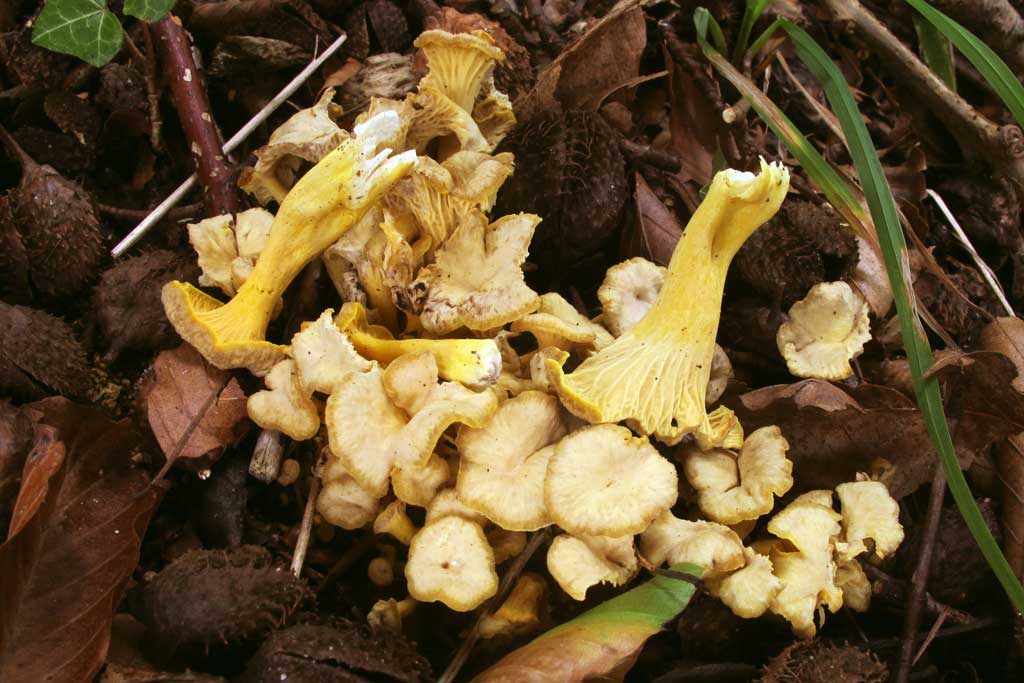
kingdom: Fungi
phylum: Basidiomycota
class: Agaricomycetes
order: Cantharellales
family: Hydnaceae
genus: Cantharellus
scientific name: Cantharellus melanoxeros
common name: sværtende kantarel
